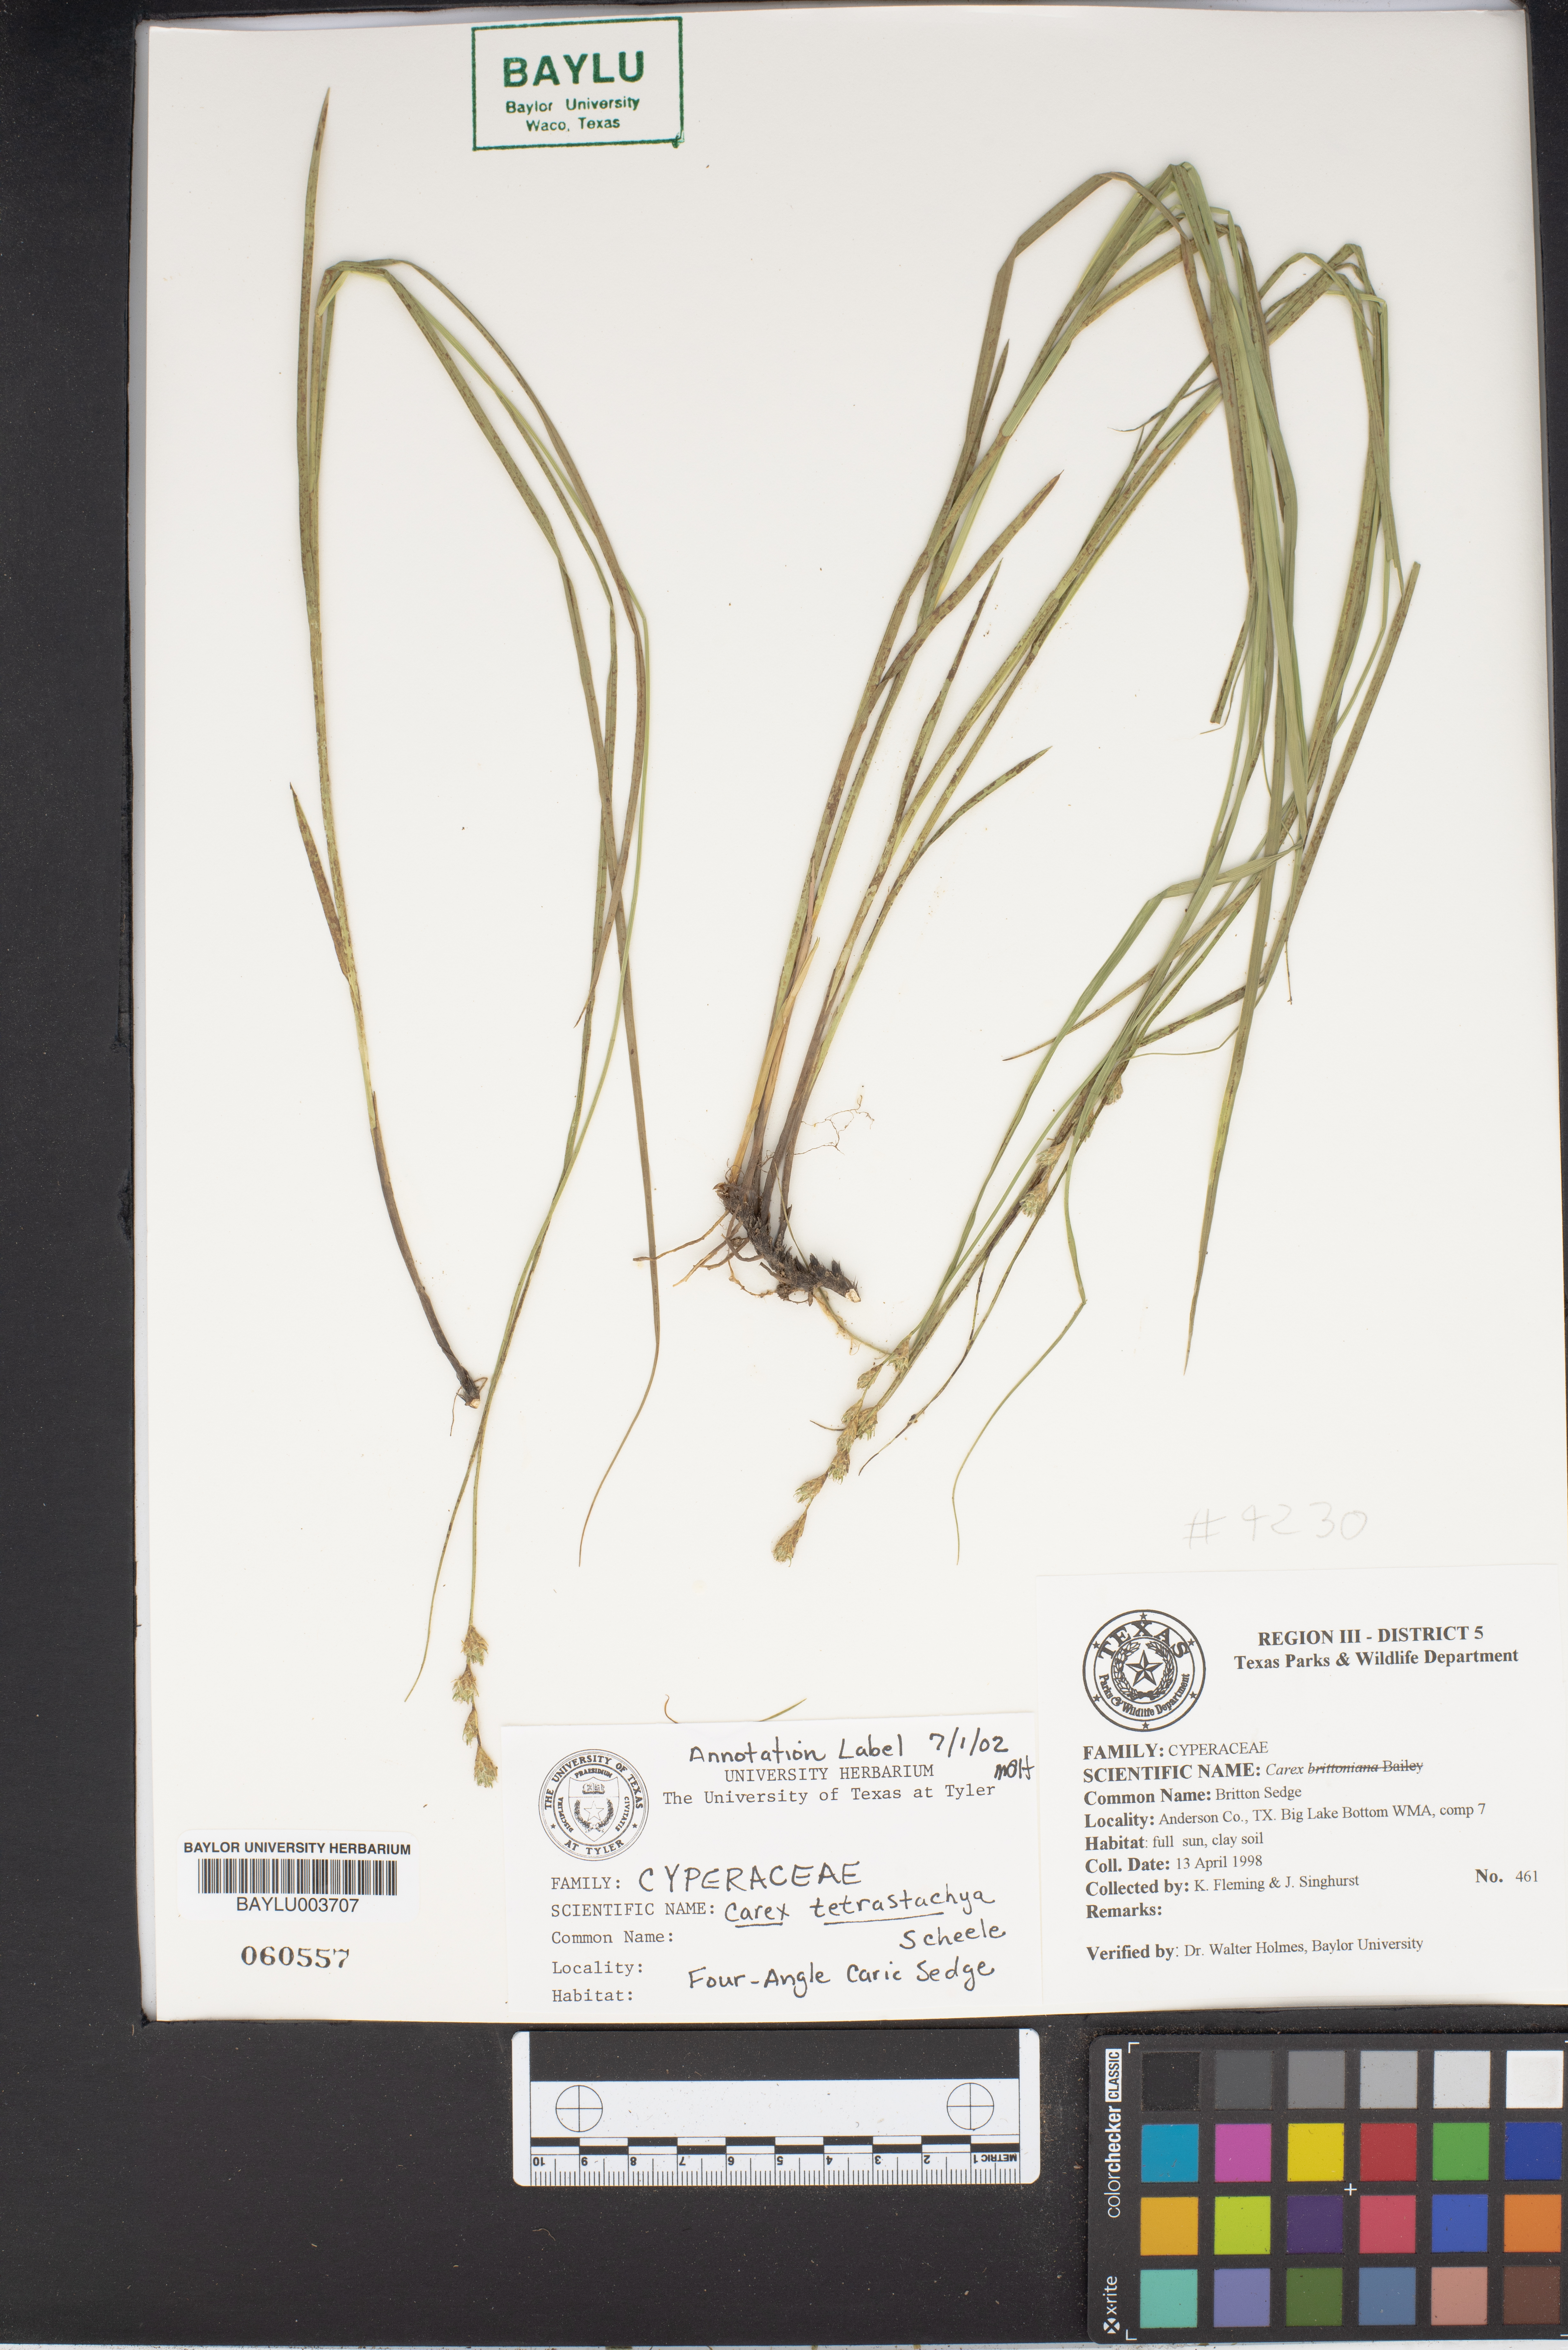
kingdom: Plantae
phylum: Tracheophyta
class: Liliopsida
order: Poales
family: Cyperaceae
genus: Carex
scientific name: Carex tetrastachya
